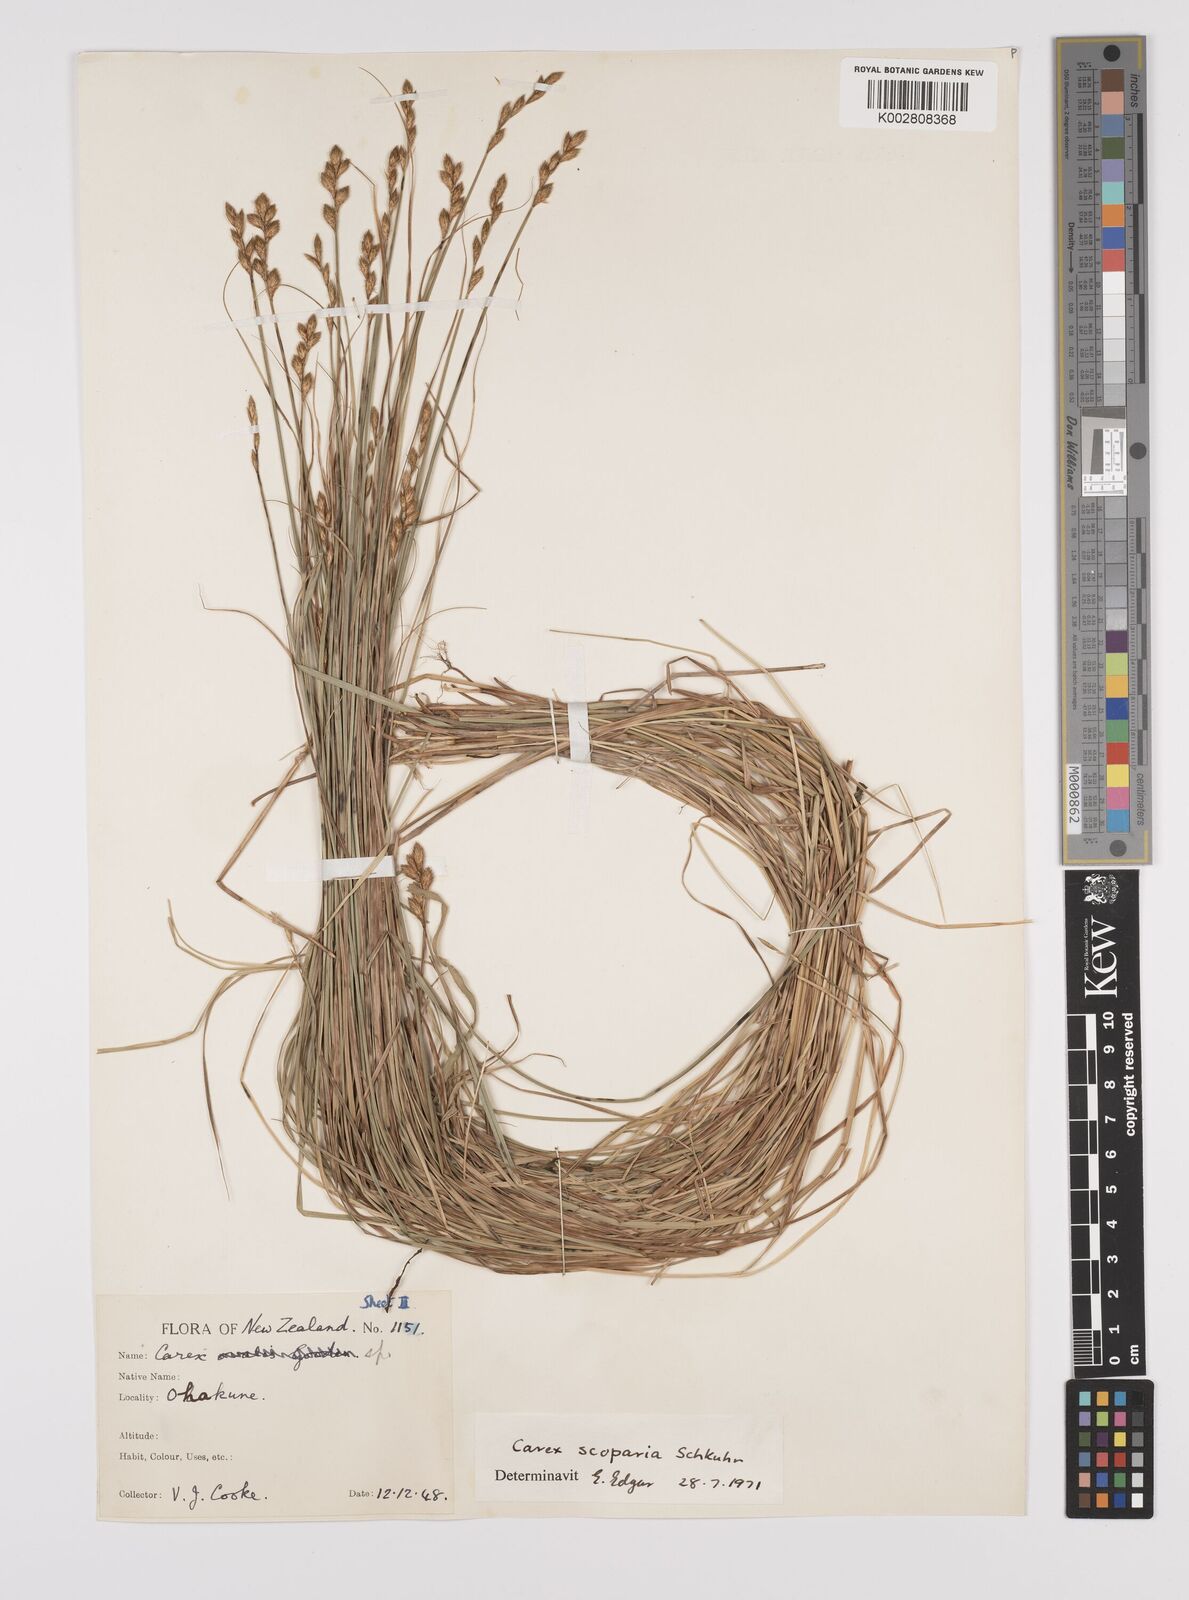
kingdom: Plantae
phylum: Tracheophyta
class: Liliopsida
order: Poales
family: Cyperaceae
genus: Carex
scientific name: Carex scoparia
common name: Broom sedge
